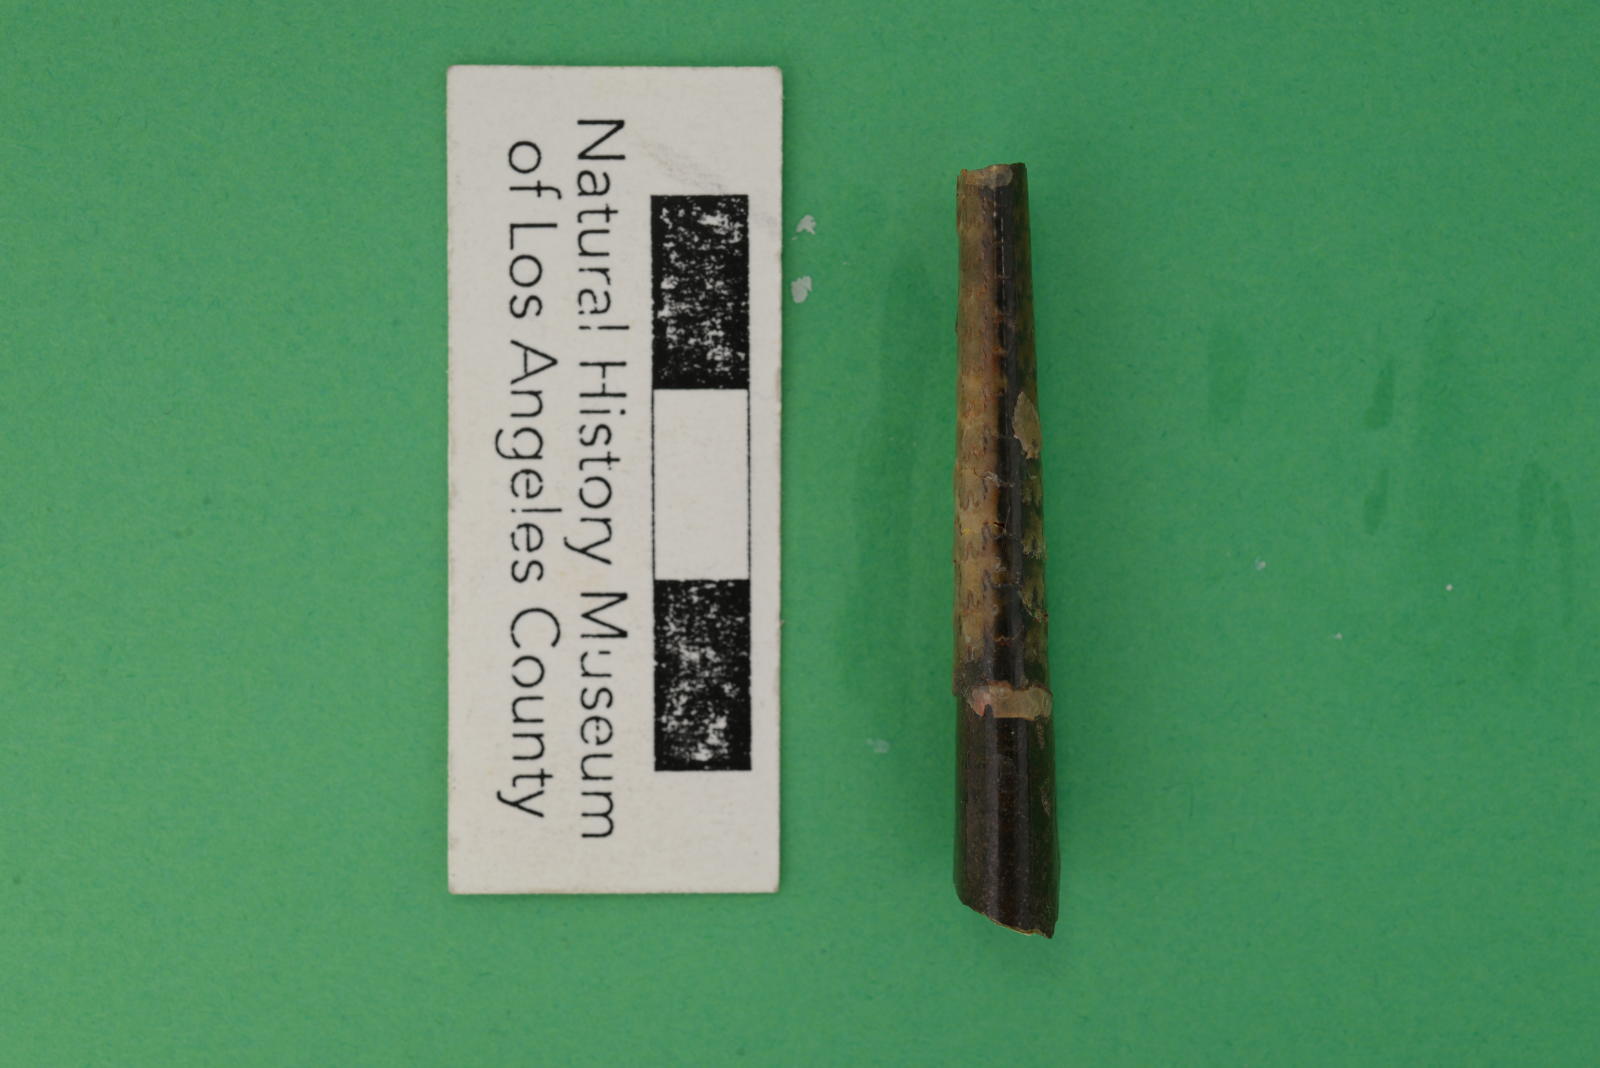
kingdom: Animalia
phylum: Mollusca
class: Cephalopoda
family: Baculitidae
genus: Baculites
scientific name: Baculites schencki
